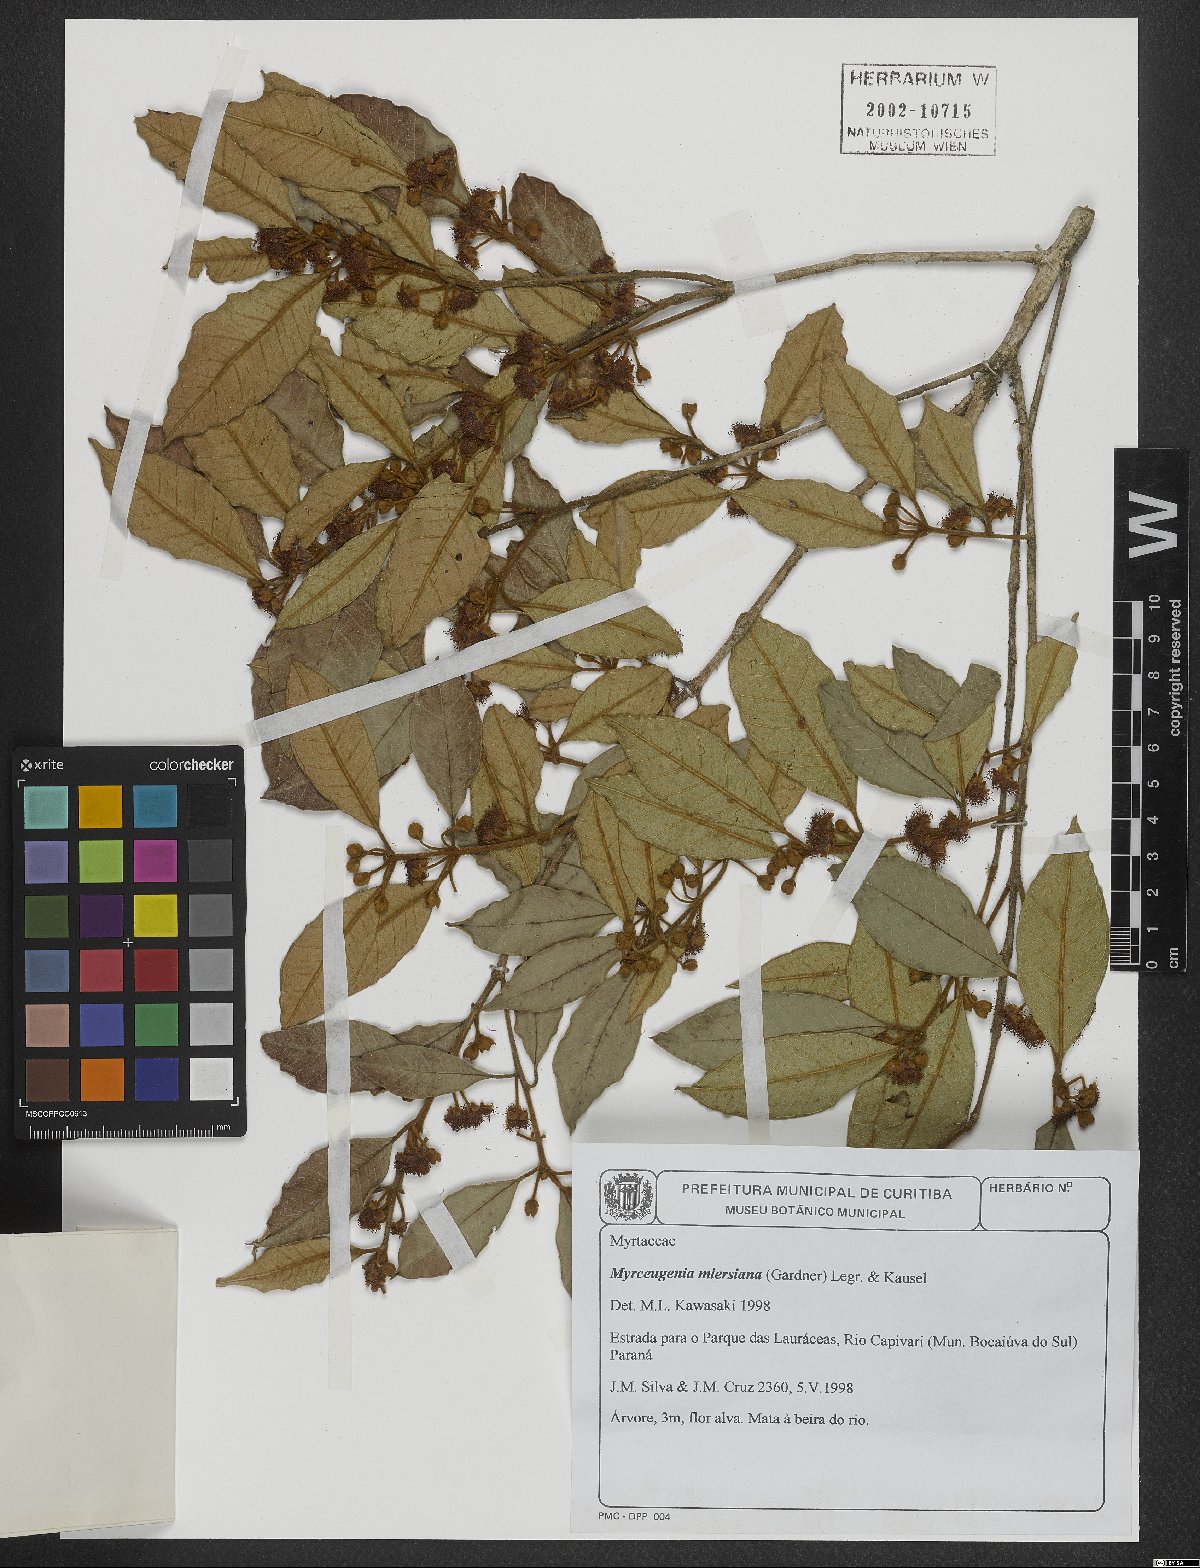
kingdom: Plantae
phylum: Tracheophyta
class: Magnoliopsida
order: Myrtales
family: Myrtaceae
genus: Myrceugenia
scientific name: Myrceugenia miersiana
